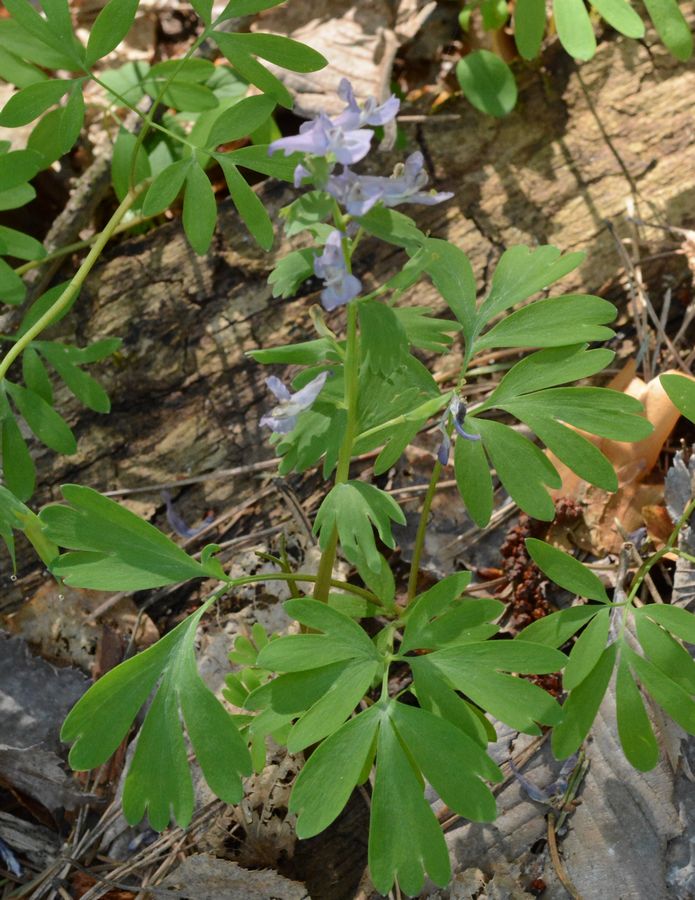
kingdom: Plantae
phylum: Tracheophyta
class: Magnoliopsida
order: Ranunculales
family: Papaveraceae
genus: Corydalis
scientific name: Corydalis solida
